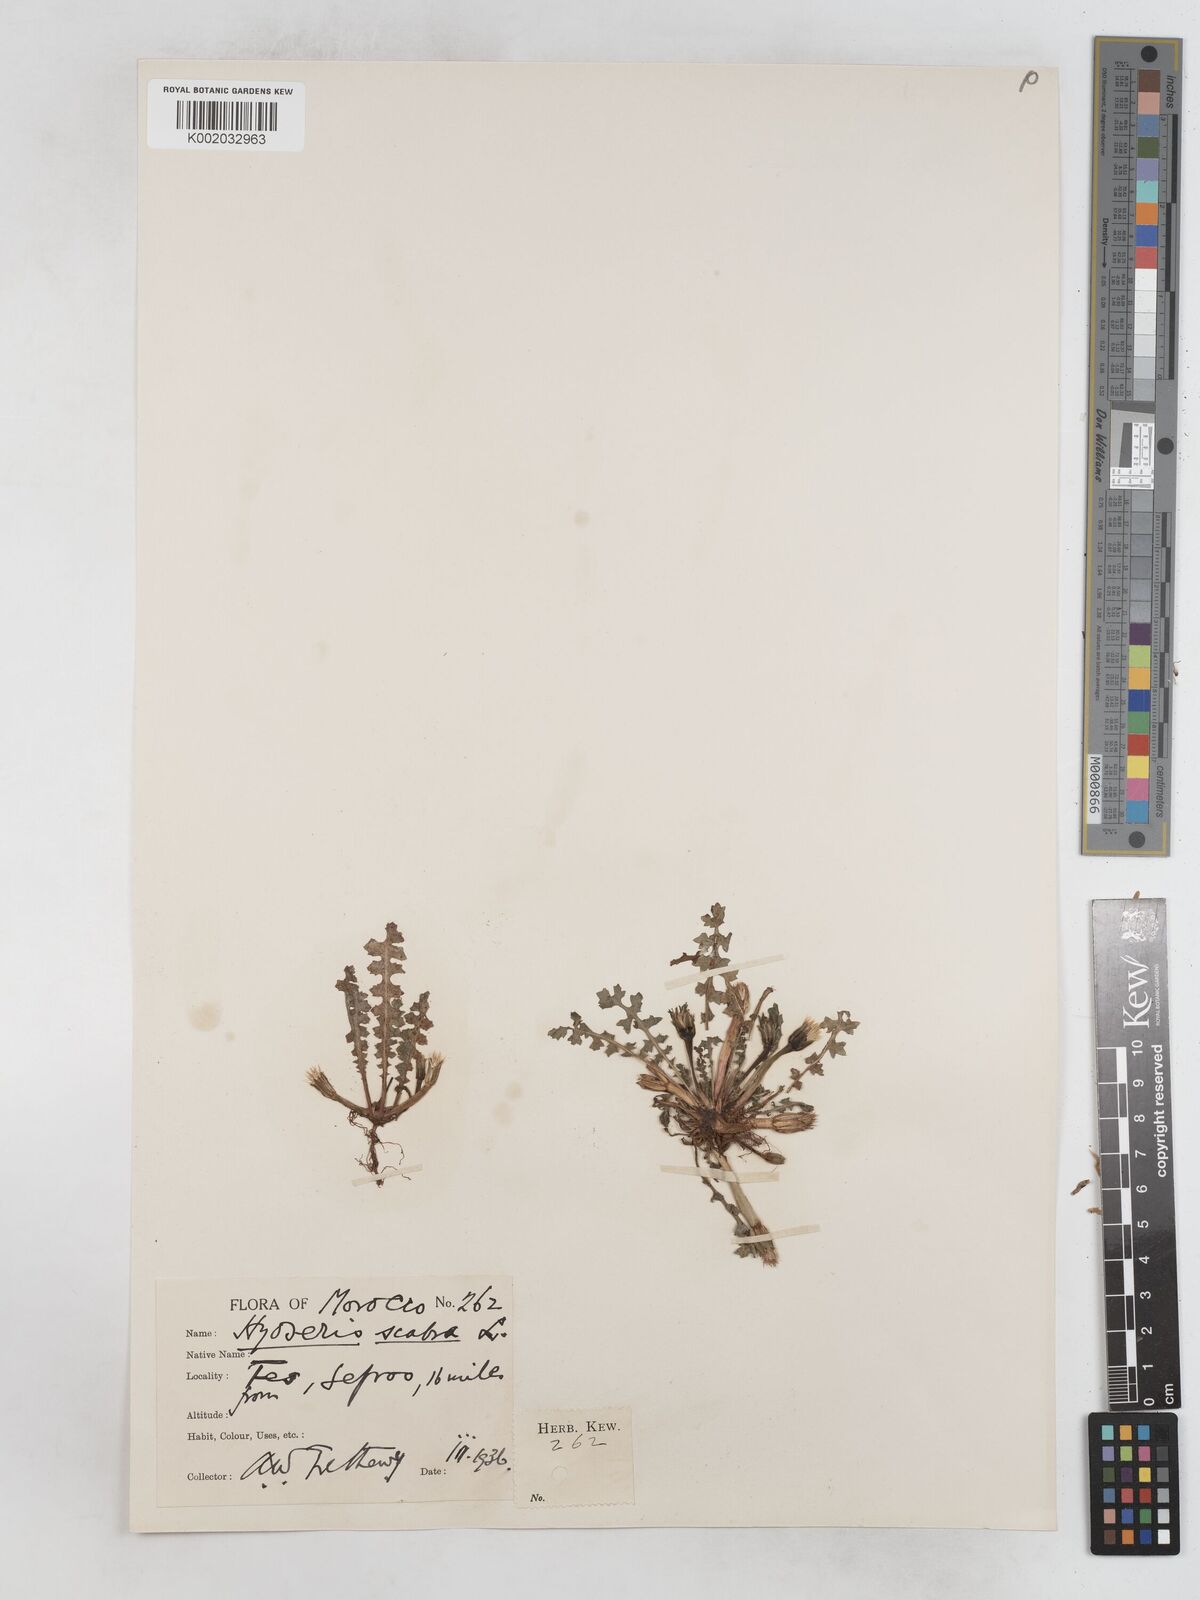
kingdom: Plantae
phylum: Tracheophyta
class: Magnoliopsida
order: Asterales
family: Asteraceae
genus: Hyoseris
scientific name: Hyoseris scabra
